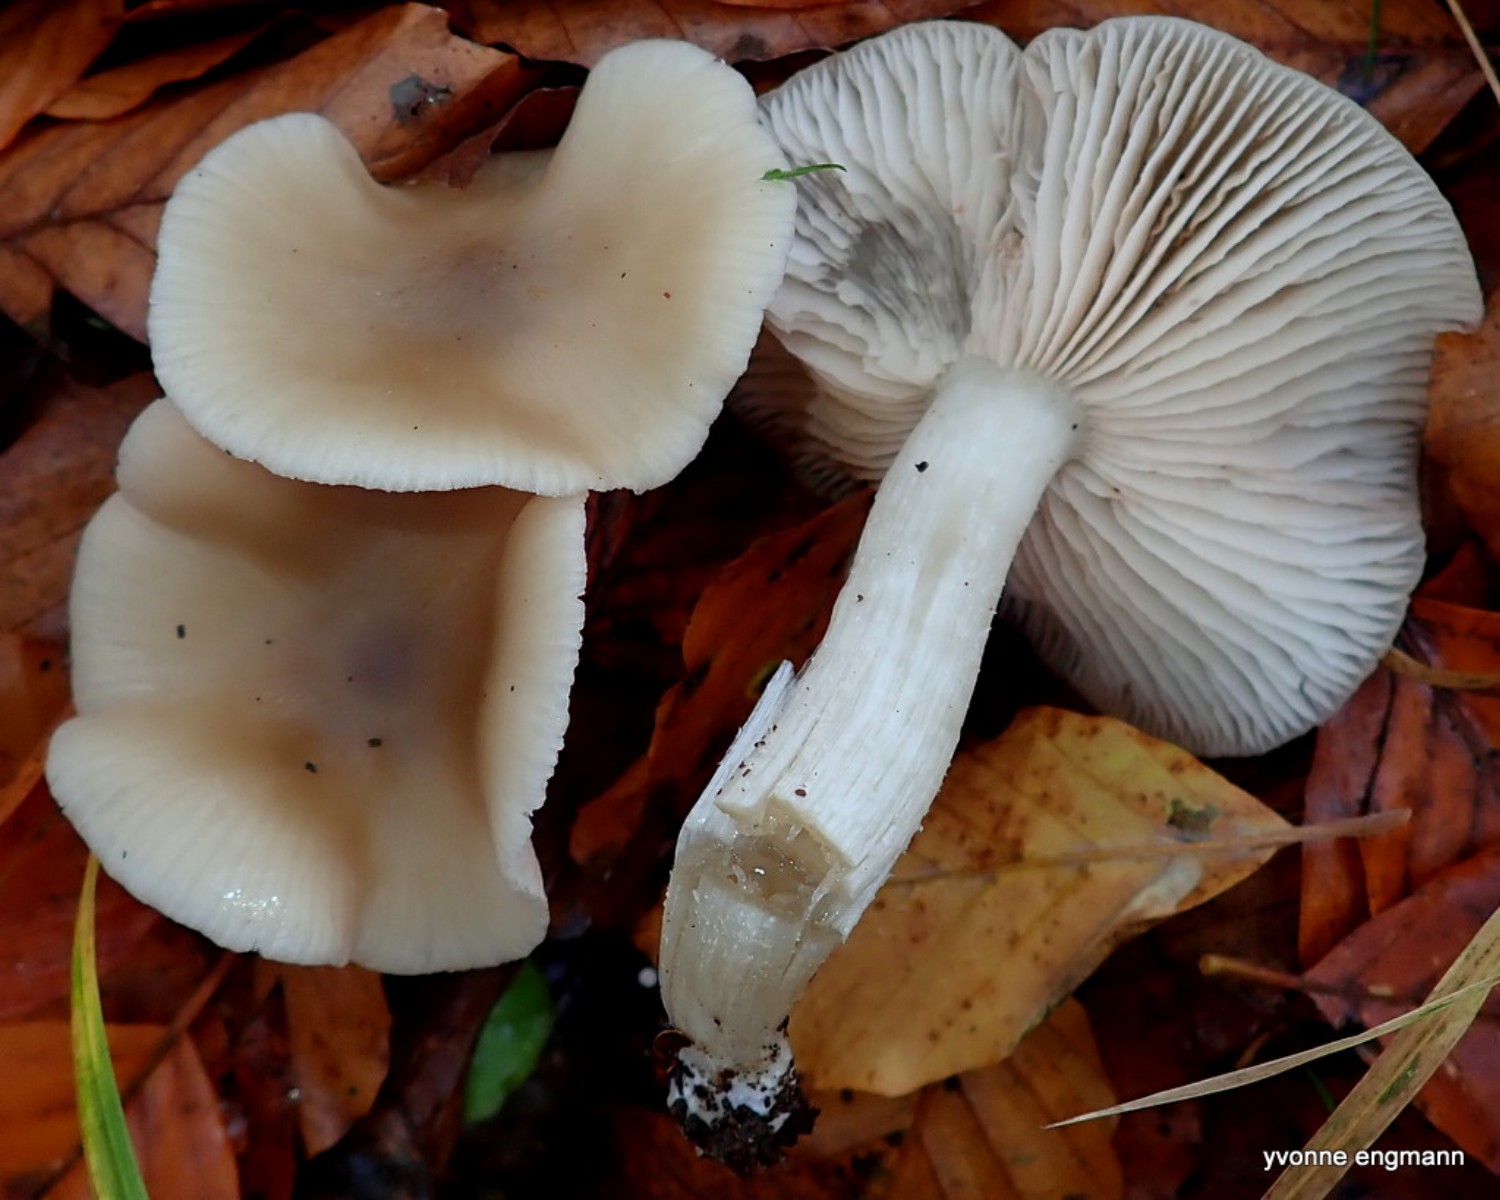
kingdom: Fungi
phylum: Basidiomycota
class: Agaricomycetes
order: Agaricales
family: Entolomataceae
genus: Entoloma
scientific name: Entoloma rhodopolium
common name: skov-rødblad
